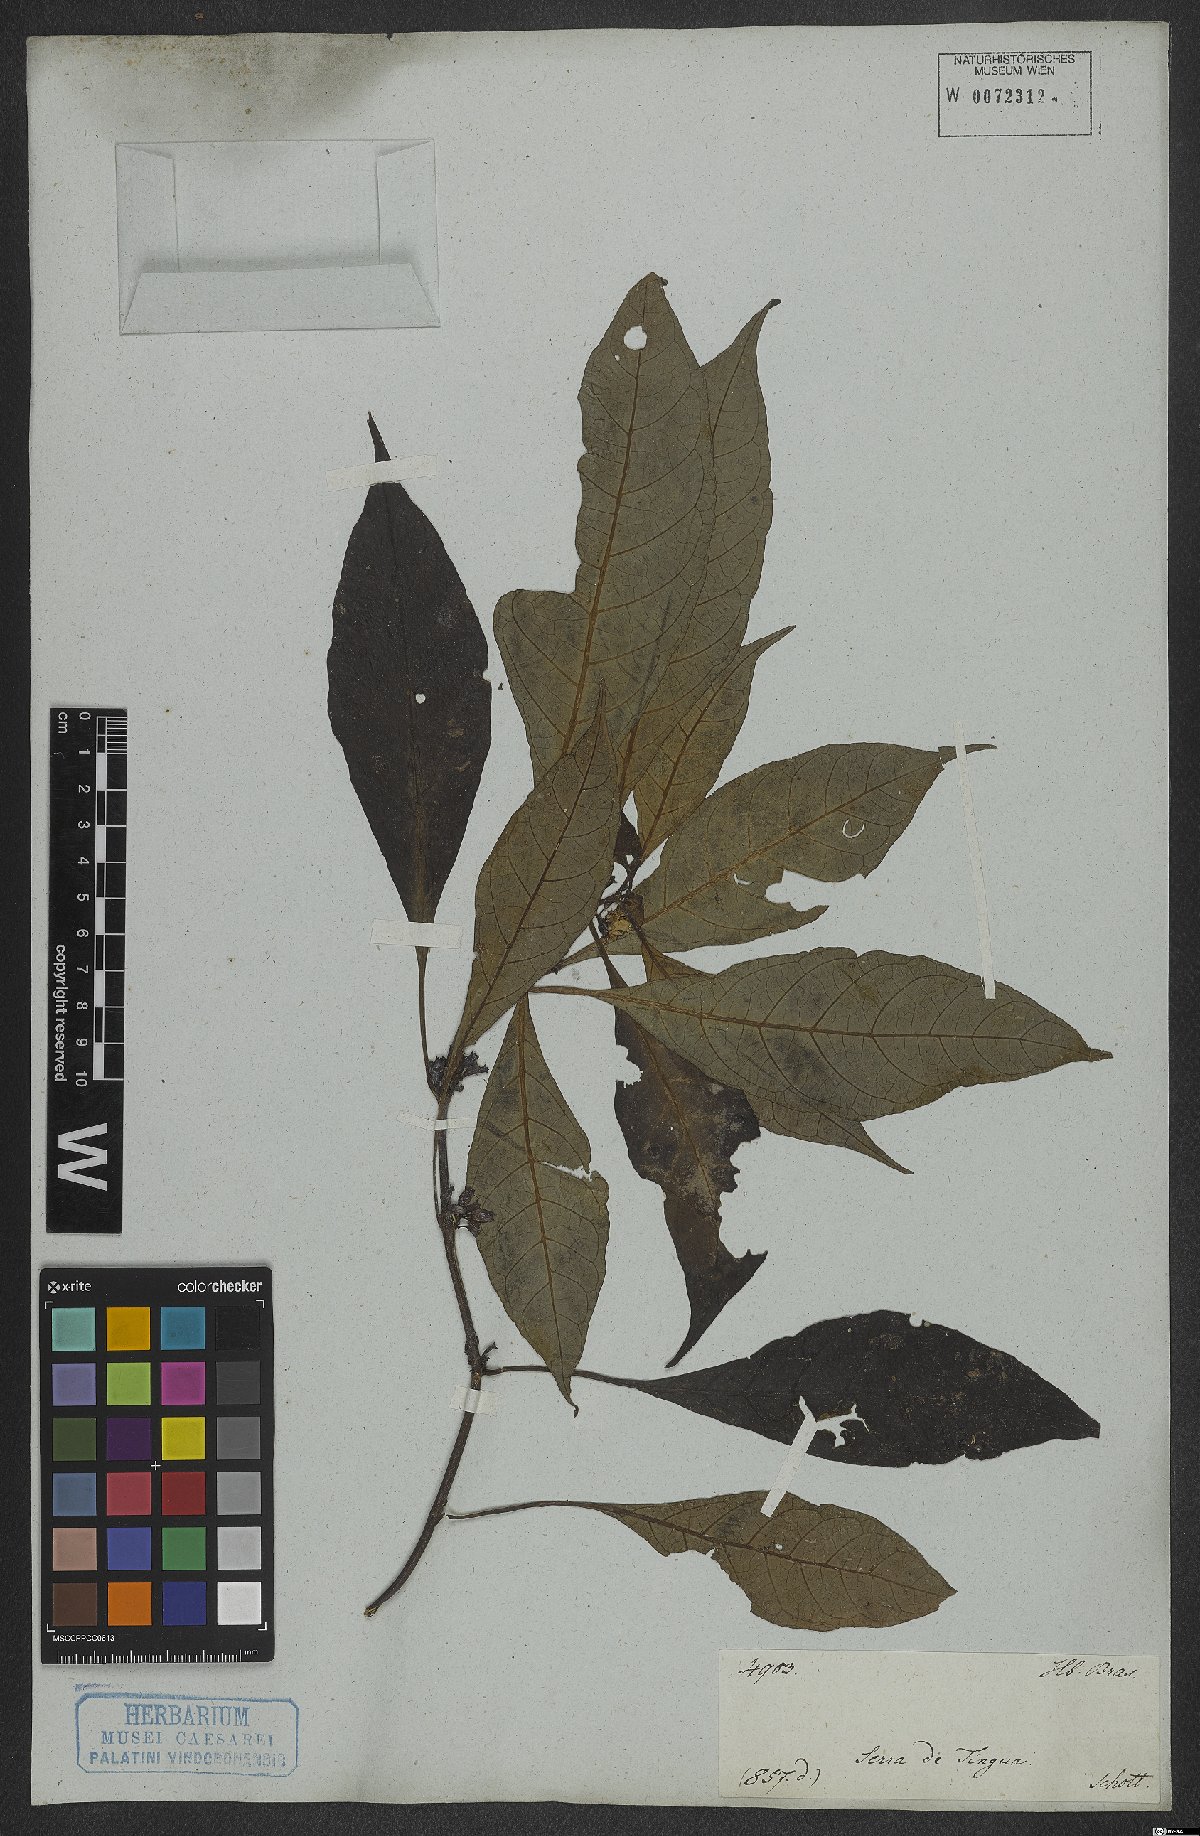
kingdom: Plantae
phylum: Tracheophyta
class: Magnoliopsida
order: Gentianales
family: Rubiaceae
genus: Hoffmannia
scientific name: Hoffmannia peckii
